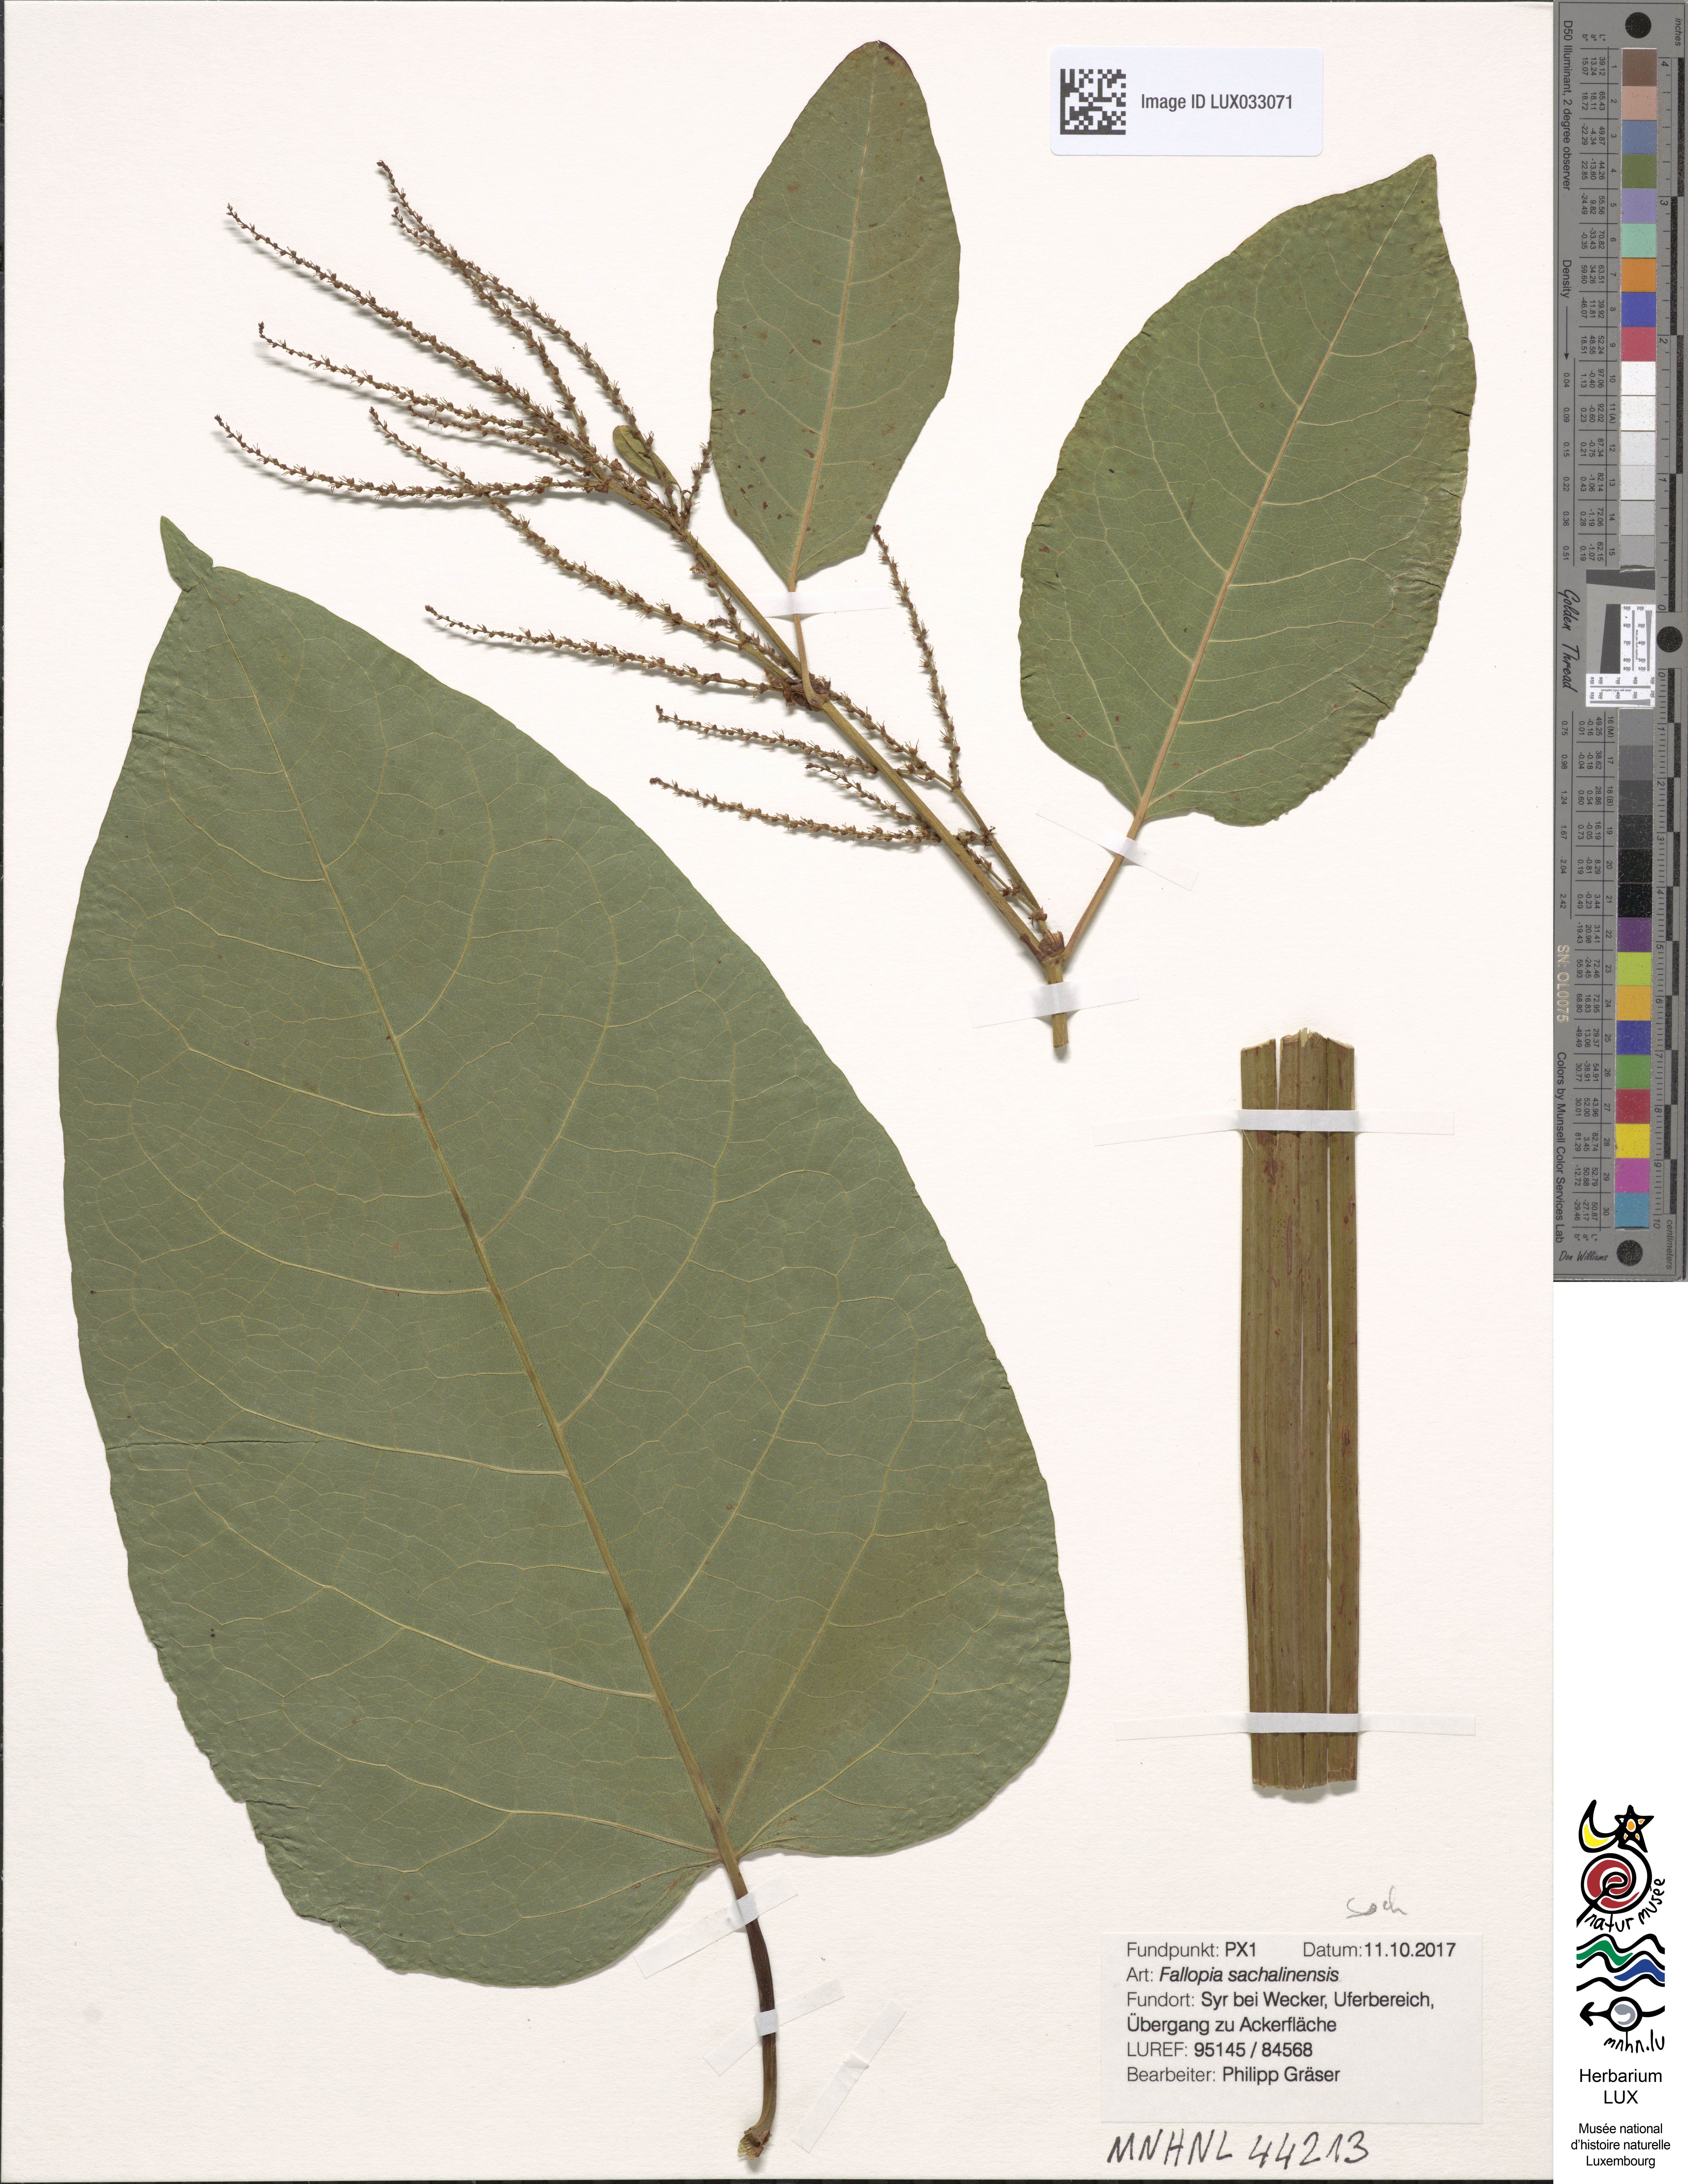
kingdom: Plantae
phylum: Tracheophyta
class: Magnoliopsida
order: Caryophyllales
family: Polygonaceae
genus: Reynoutria
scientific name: Reynoutria sachalinensis
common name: Giant knotweed
